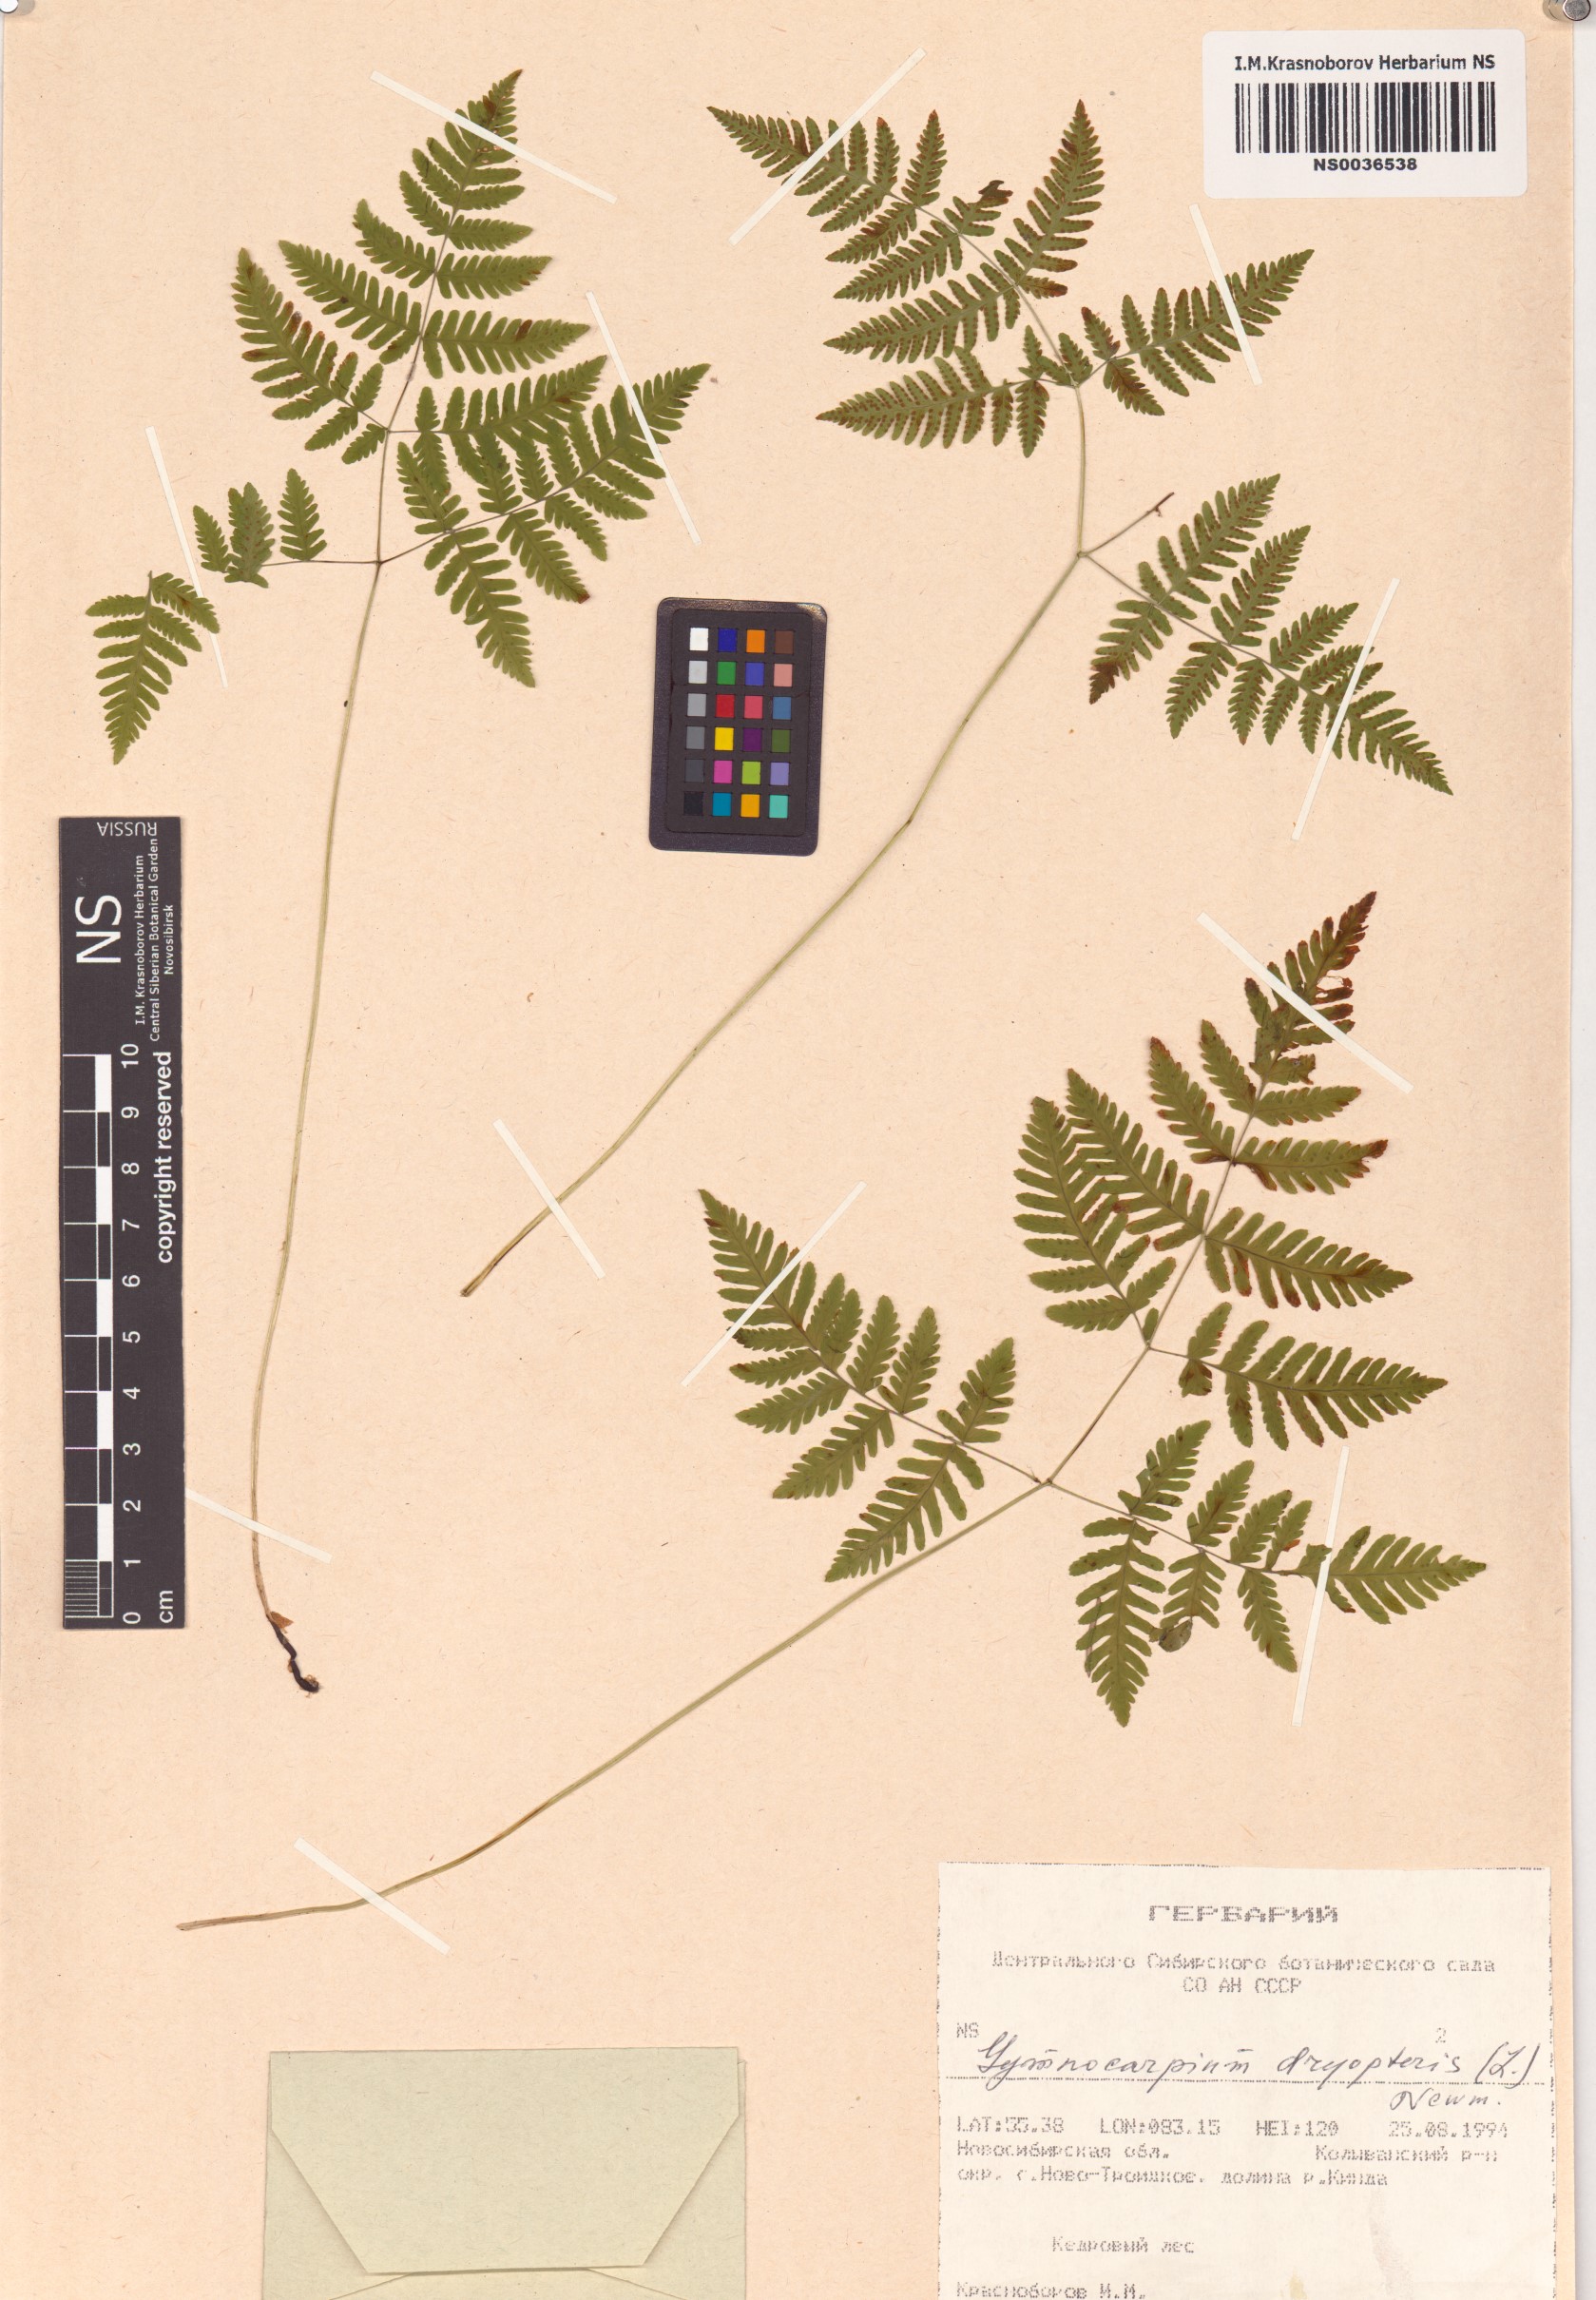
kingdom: Plantae
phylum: Tracheophyta
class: Polypodiopsida
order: Polypodiales
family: Cystopteridaceae
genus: Gymnocarpium
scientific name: Gymnocarpium dryopteris
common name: Oak fern
